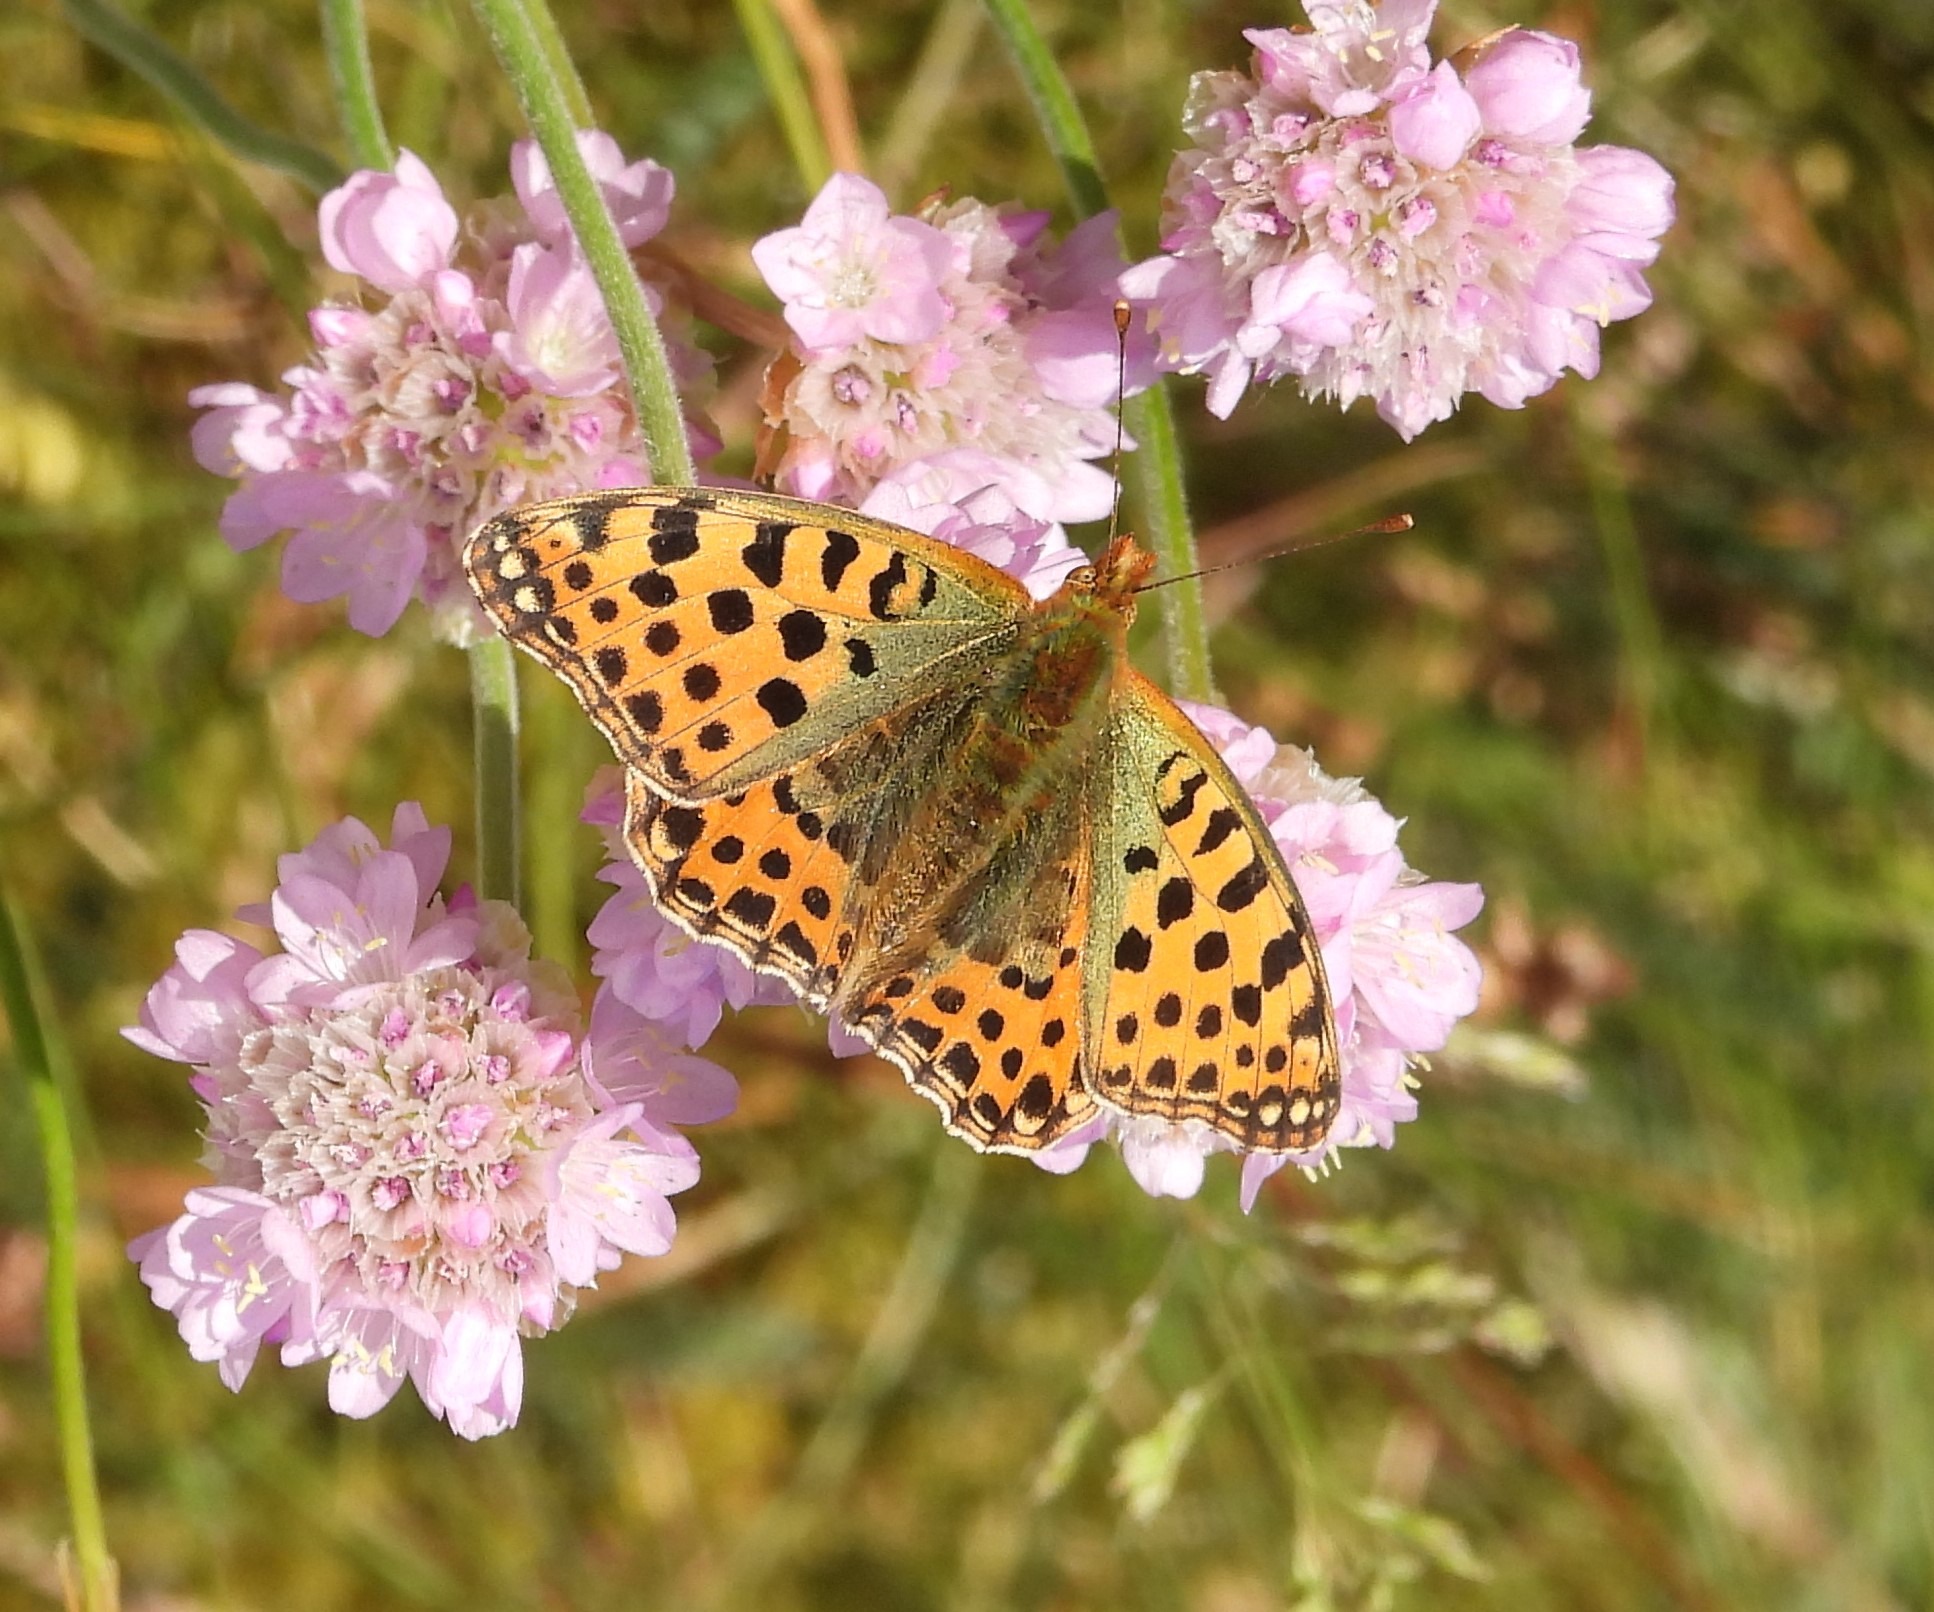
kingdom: Animalia
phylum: Arthropoda
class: Insecta
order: Lepidoptera
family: Nymphalidae
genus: Issoria
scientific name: Issoria lathonia
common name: Storplettet perlemorsommerfugl
